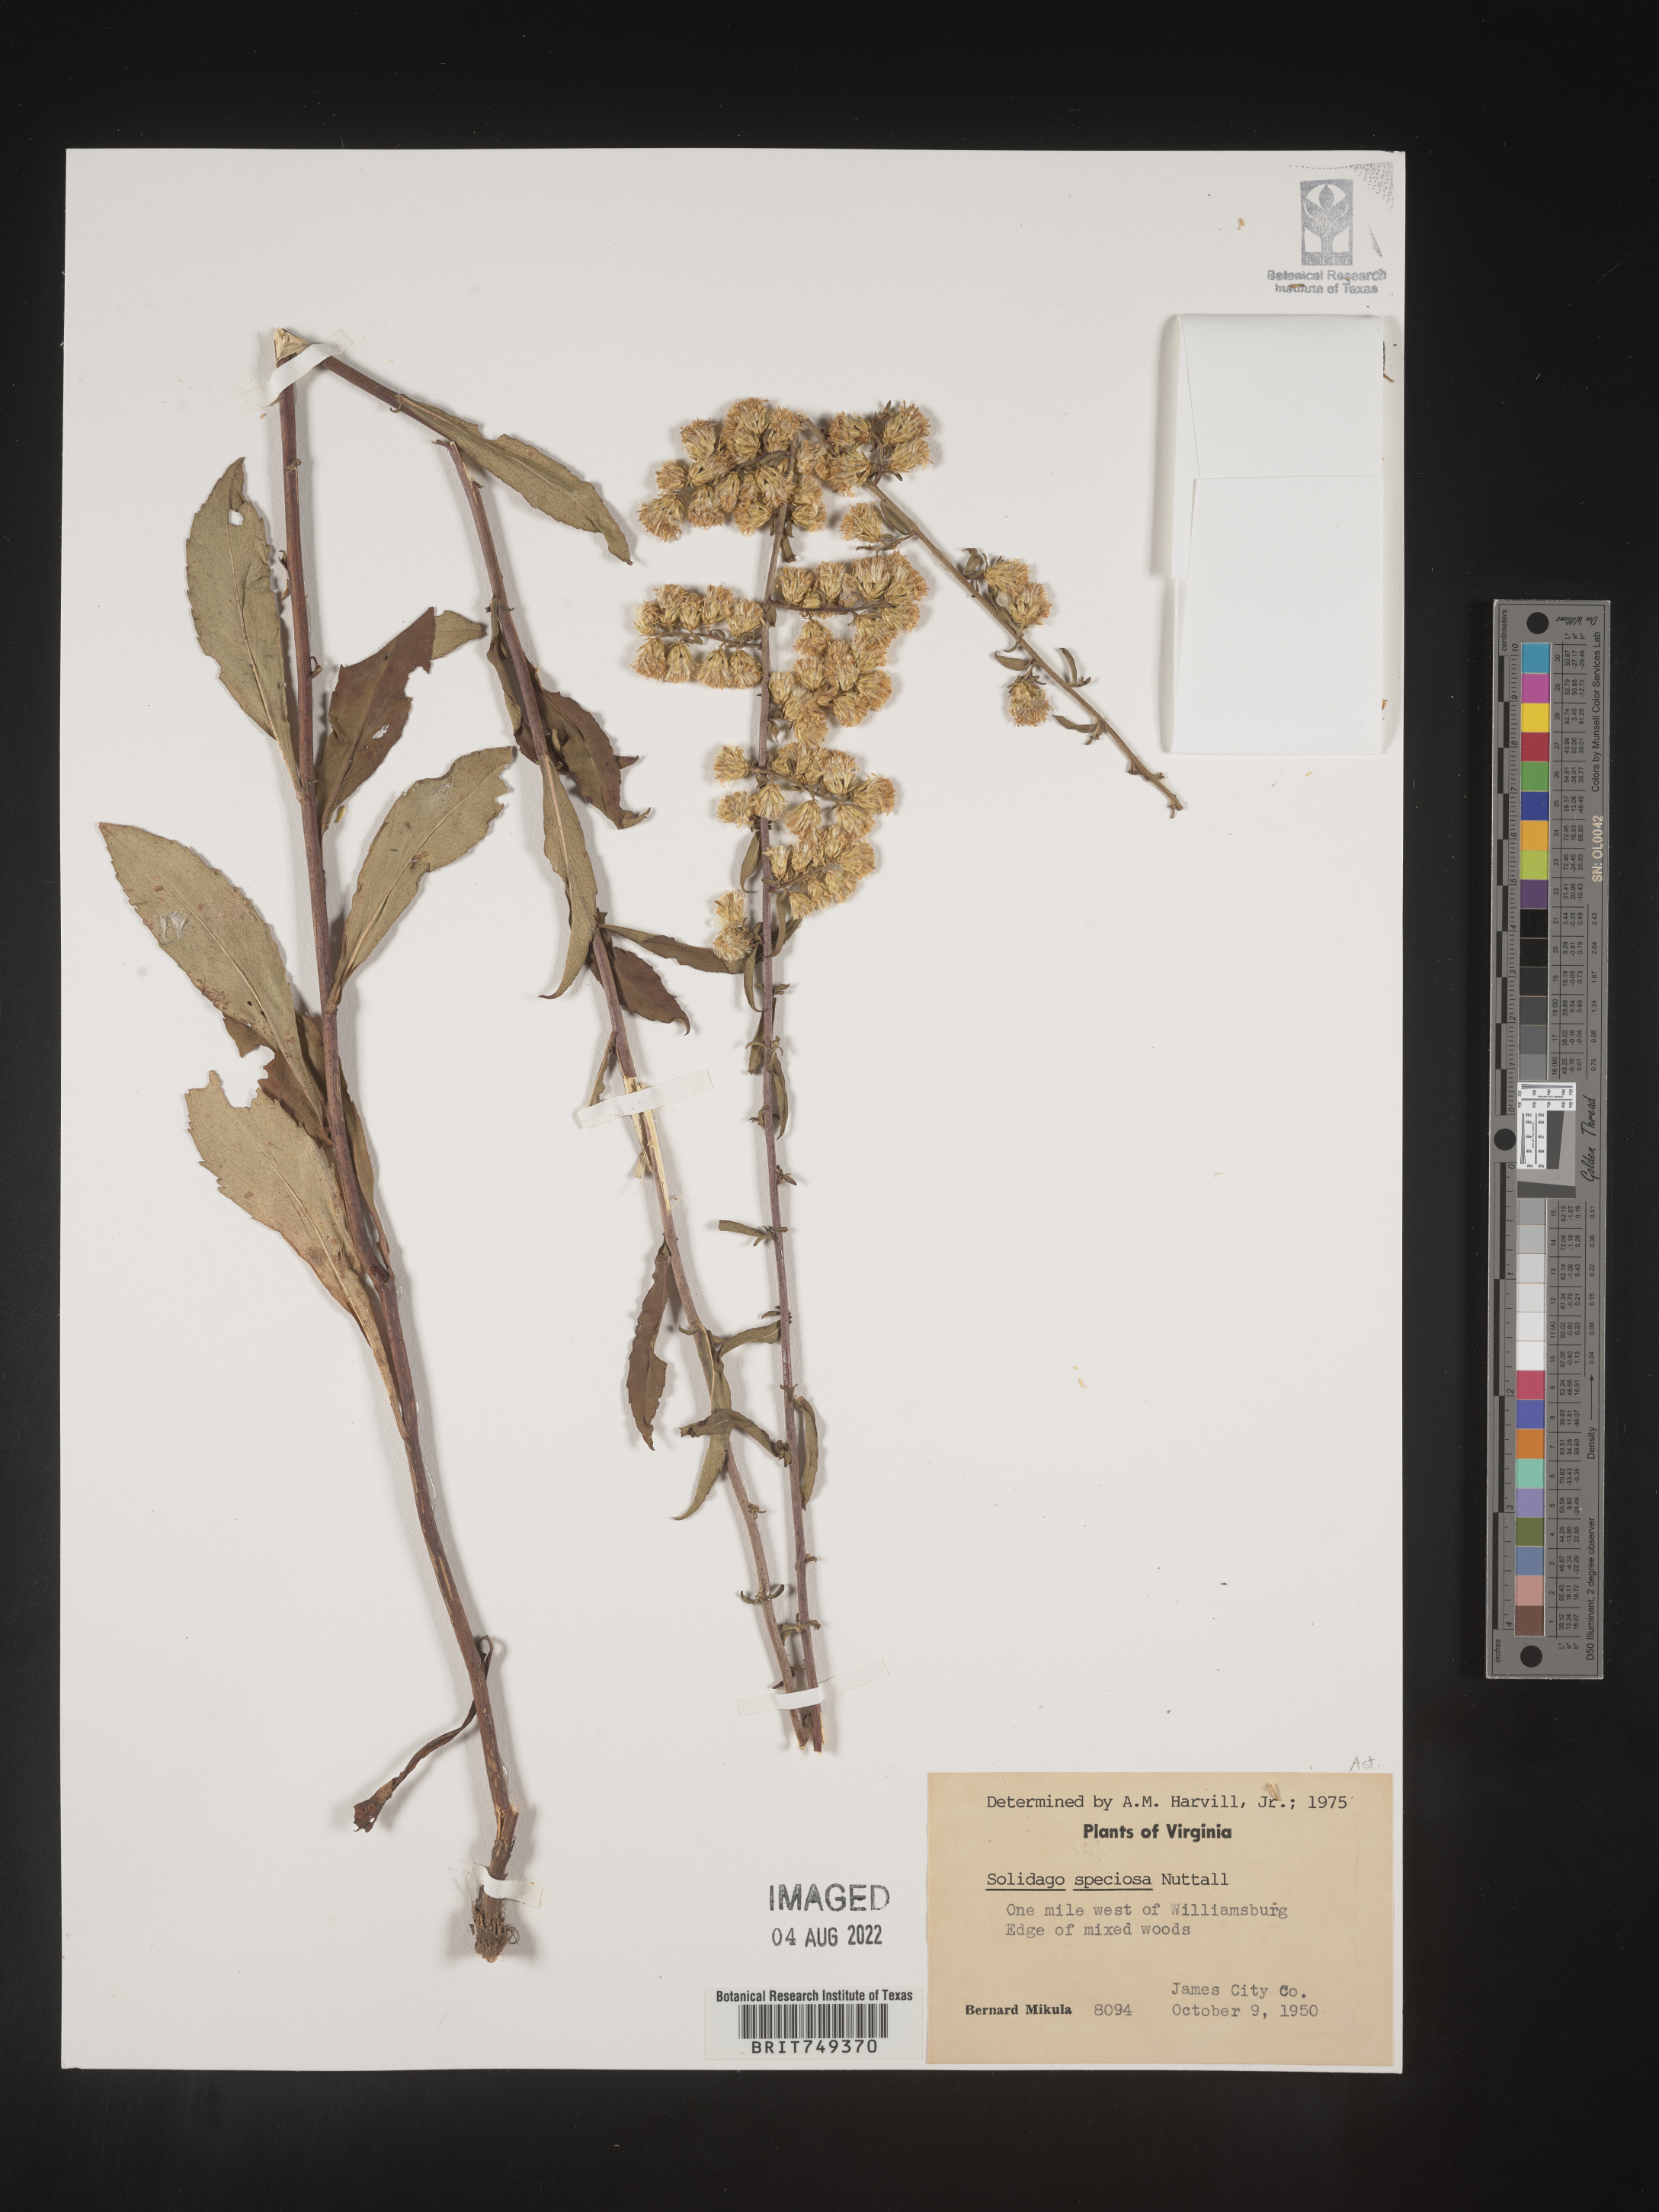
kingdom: Plantae
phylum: Tracheophyta
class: Magnoliopsida
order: Asterales
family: Asteraceae
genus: Solidago
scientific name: Solidago speciosa
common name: Showy goldenrod
